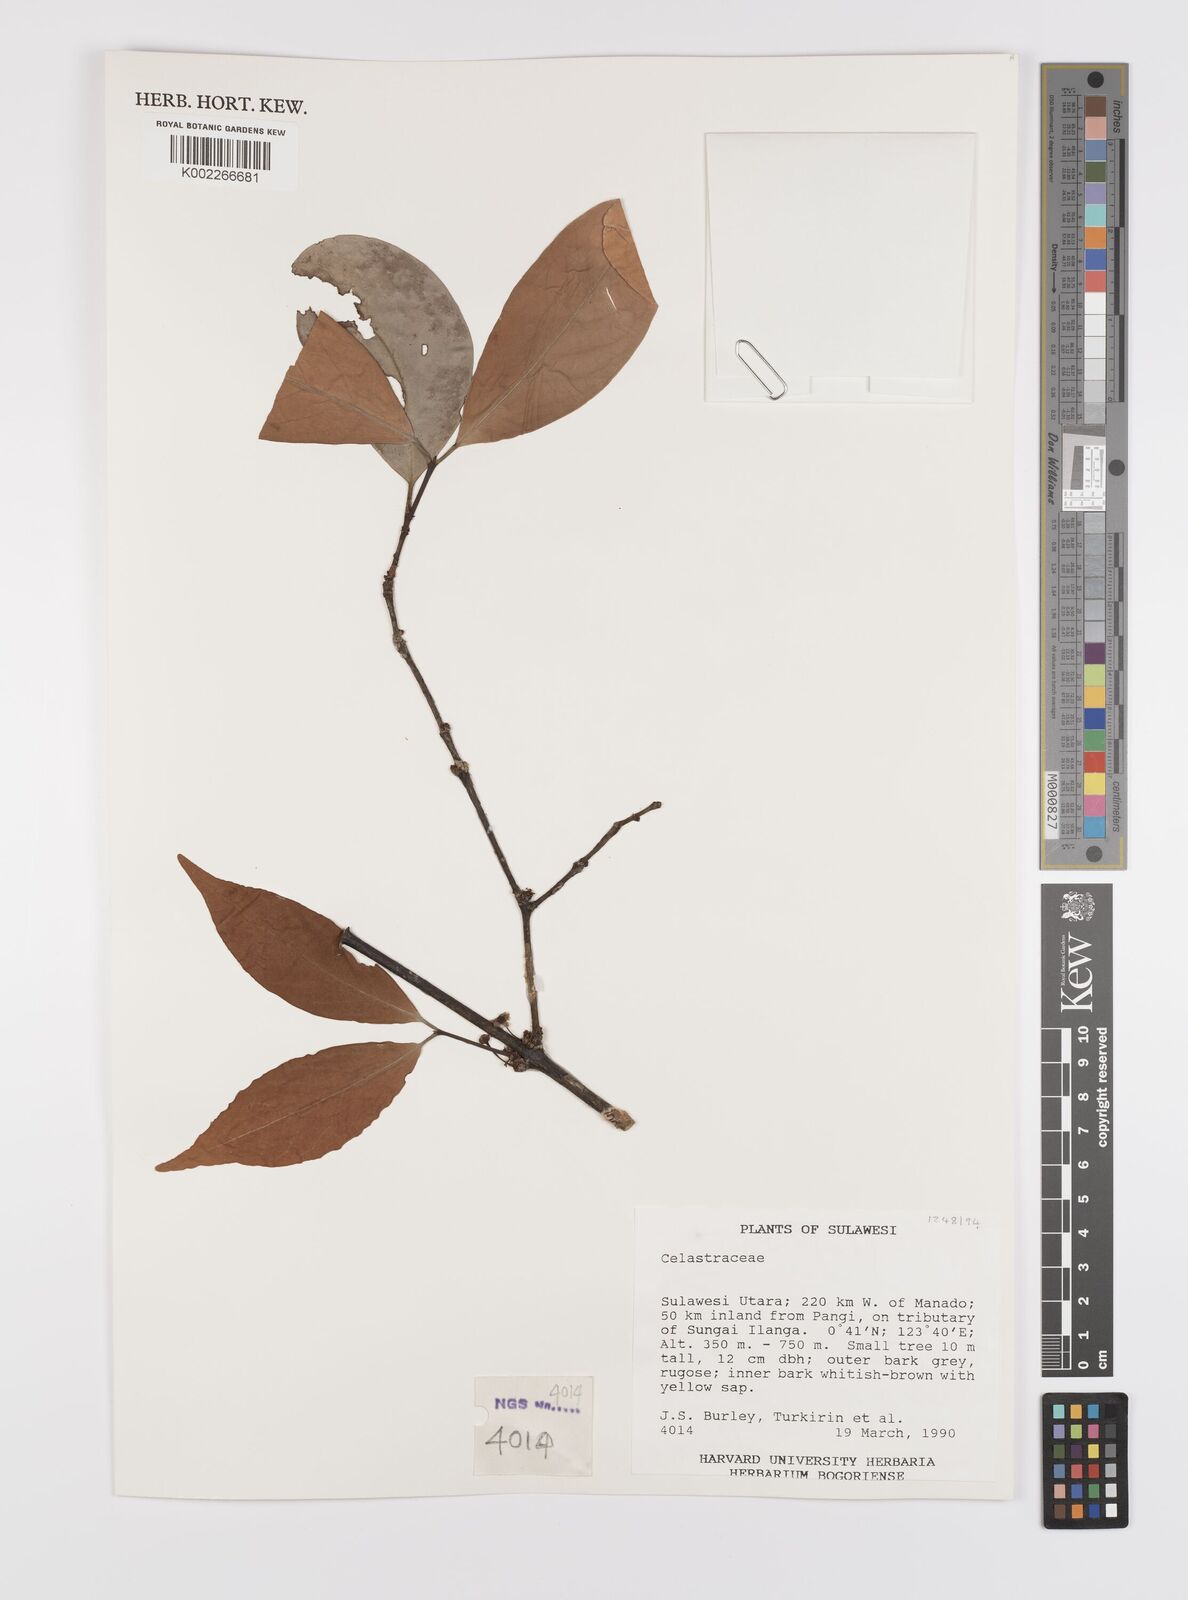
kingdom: Plantae
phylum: Tracheophyta
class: Magnoliopsida
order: Celastrales
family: Celastraceae
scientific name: Celastraceae
